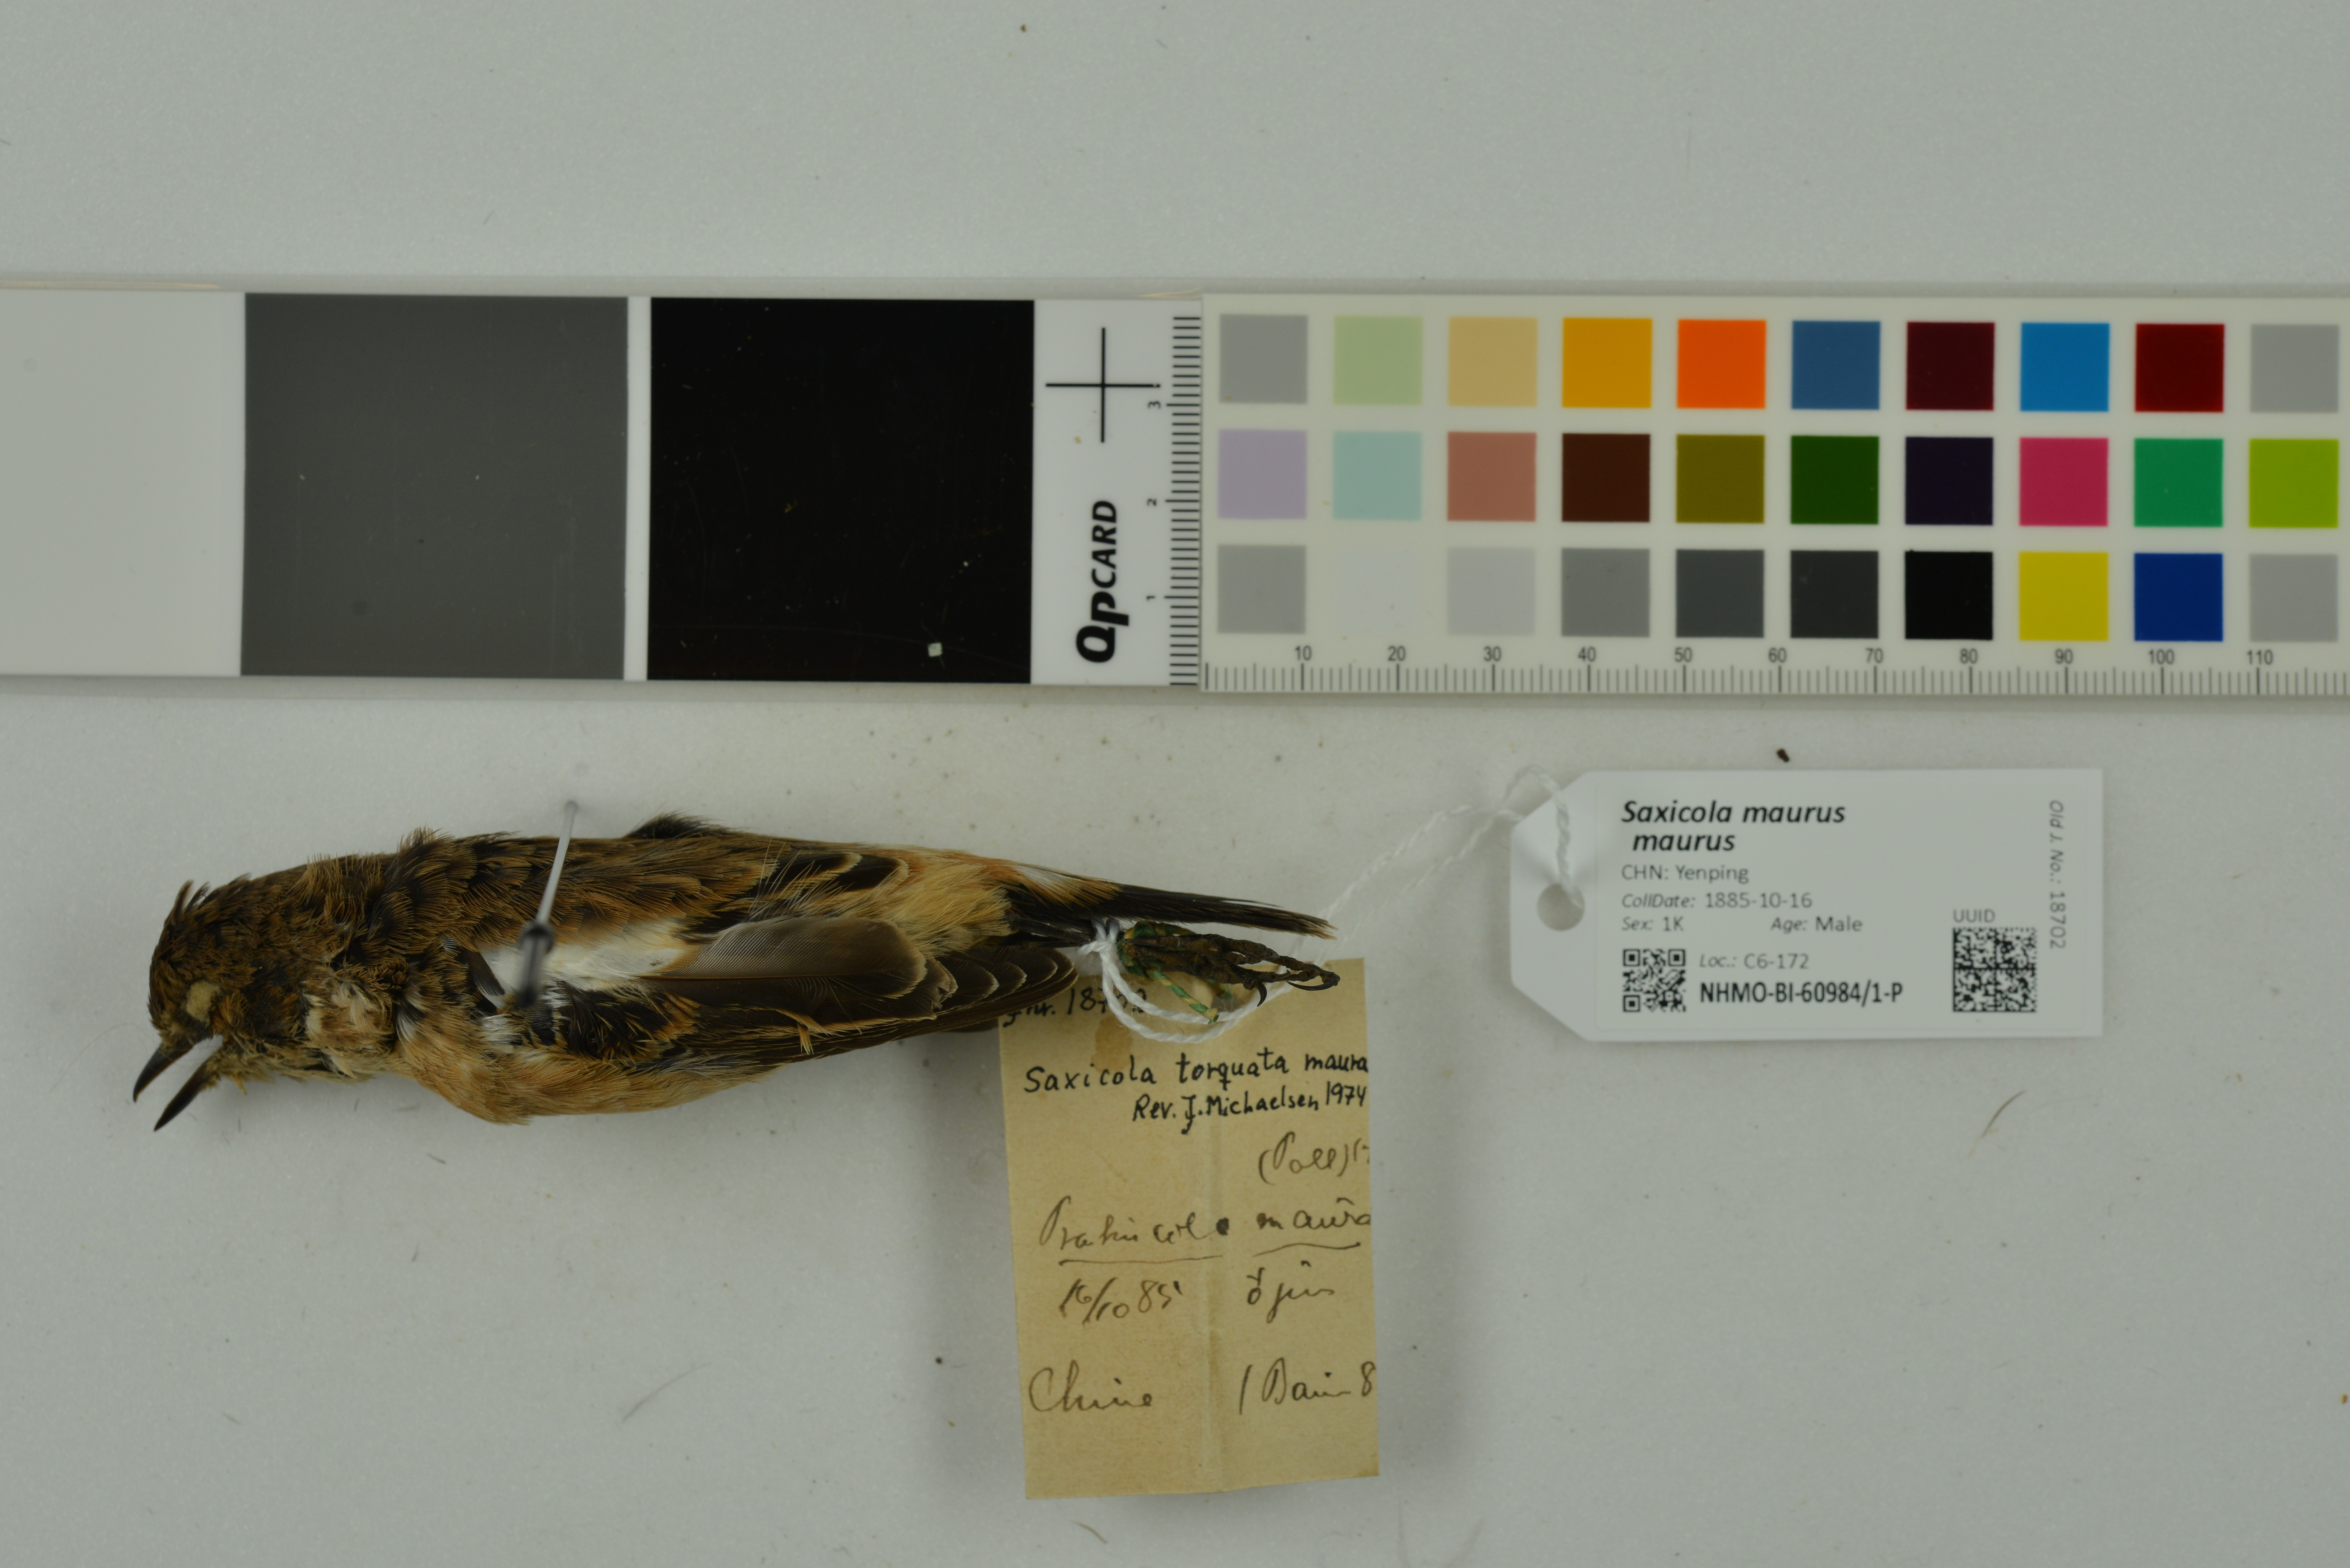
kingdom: Animalia
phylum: Chordata
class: Aves
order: Passeriformes
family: Muscicapidae
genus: Saxicola
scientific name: Saxicola maurus
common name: Siberian stonechat
